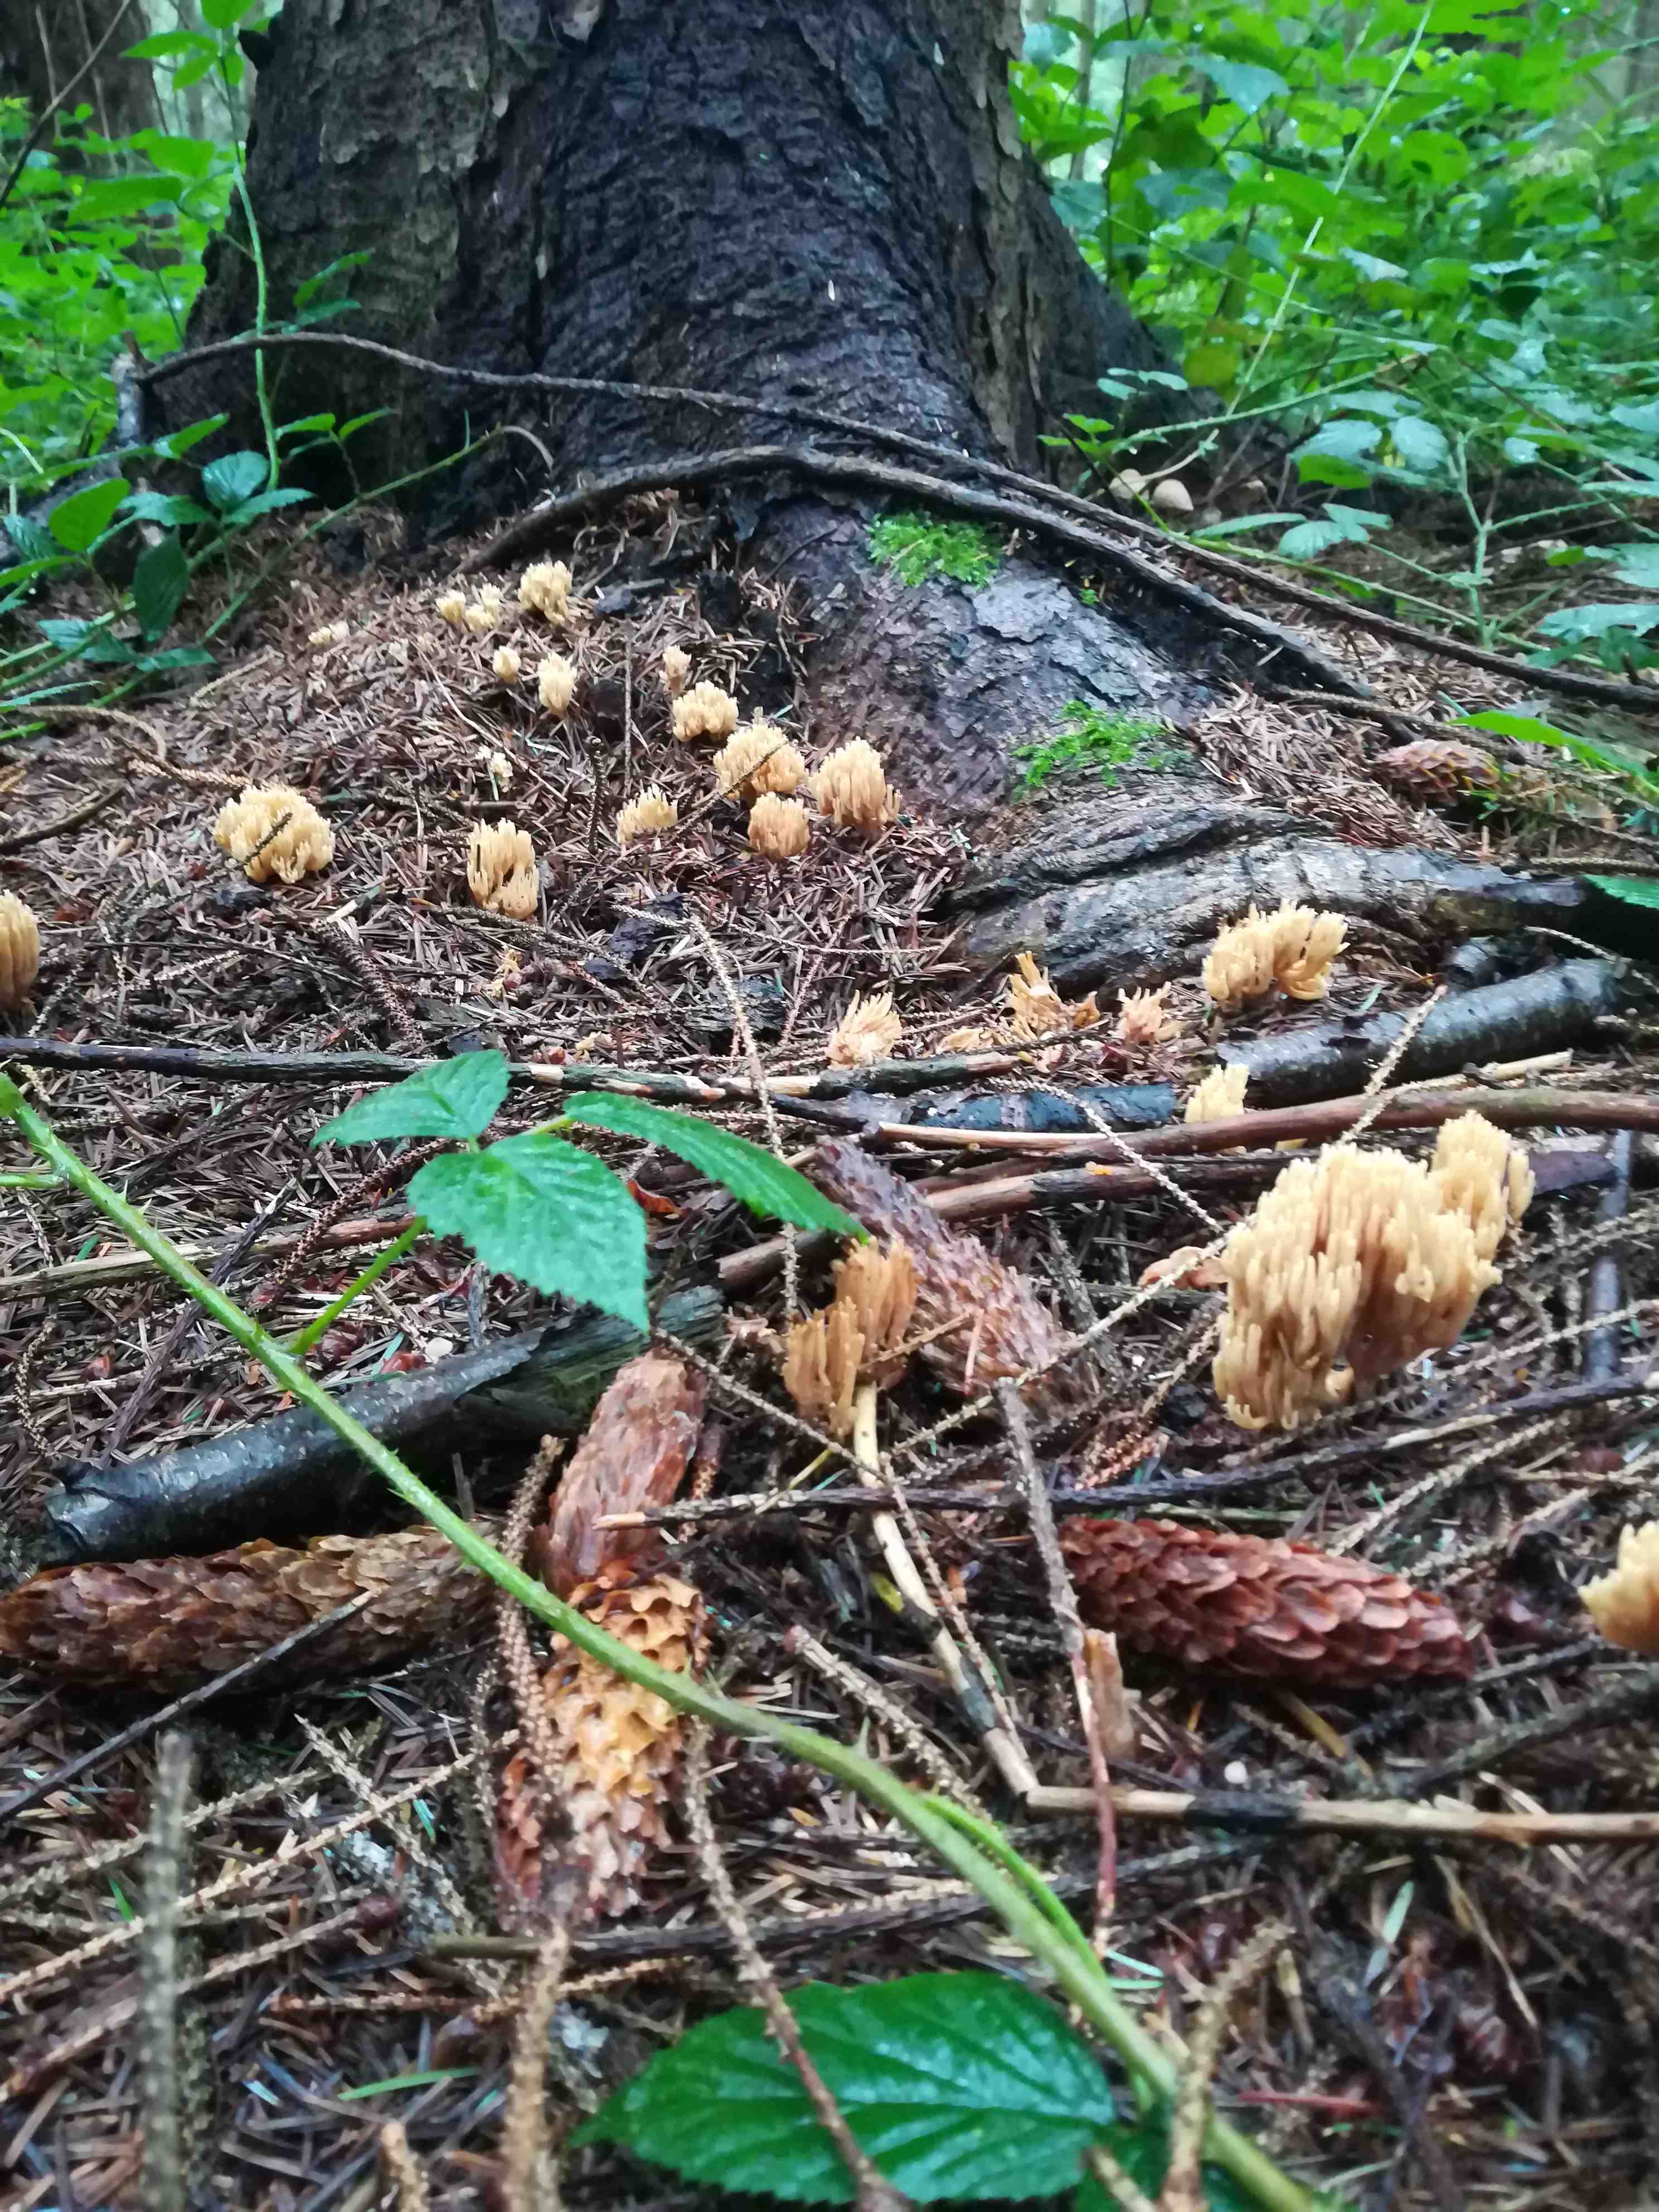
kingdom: Fungi
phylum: Basidiomycota
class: Agaricomycetes
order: Gomphales
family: Gomphaceae
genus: Phaeoclavulina
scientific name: Phaeoclavulina eumorpha
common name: gran-koralsvamp
